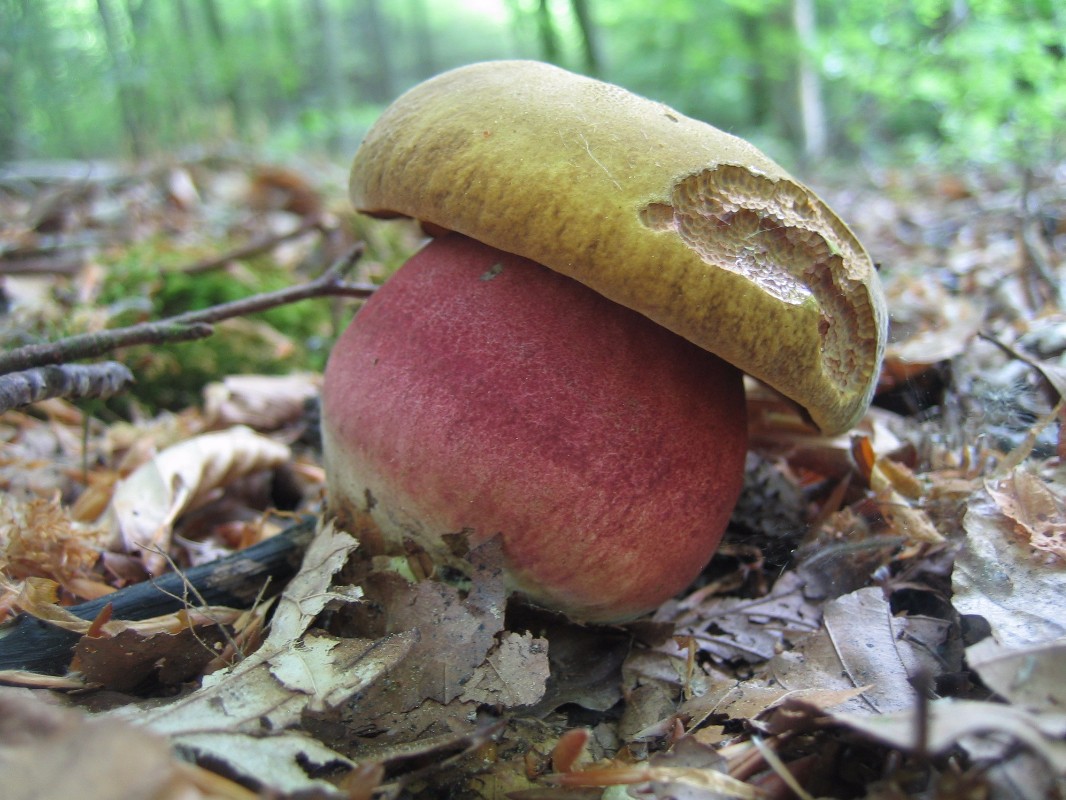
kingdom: Fungi
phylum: Basidiomycota
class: Agaricomycetes
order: Boletales
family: Boletaceae
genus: Neoboletus
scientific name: Neoboletus erythropus
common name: punktstokket indigorørhat
